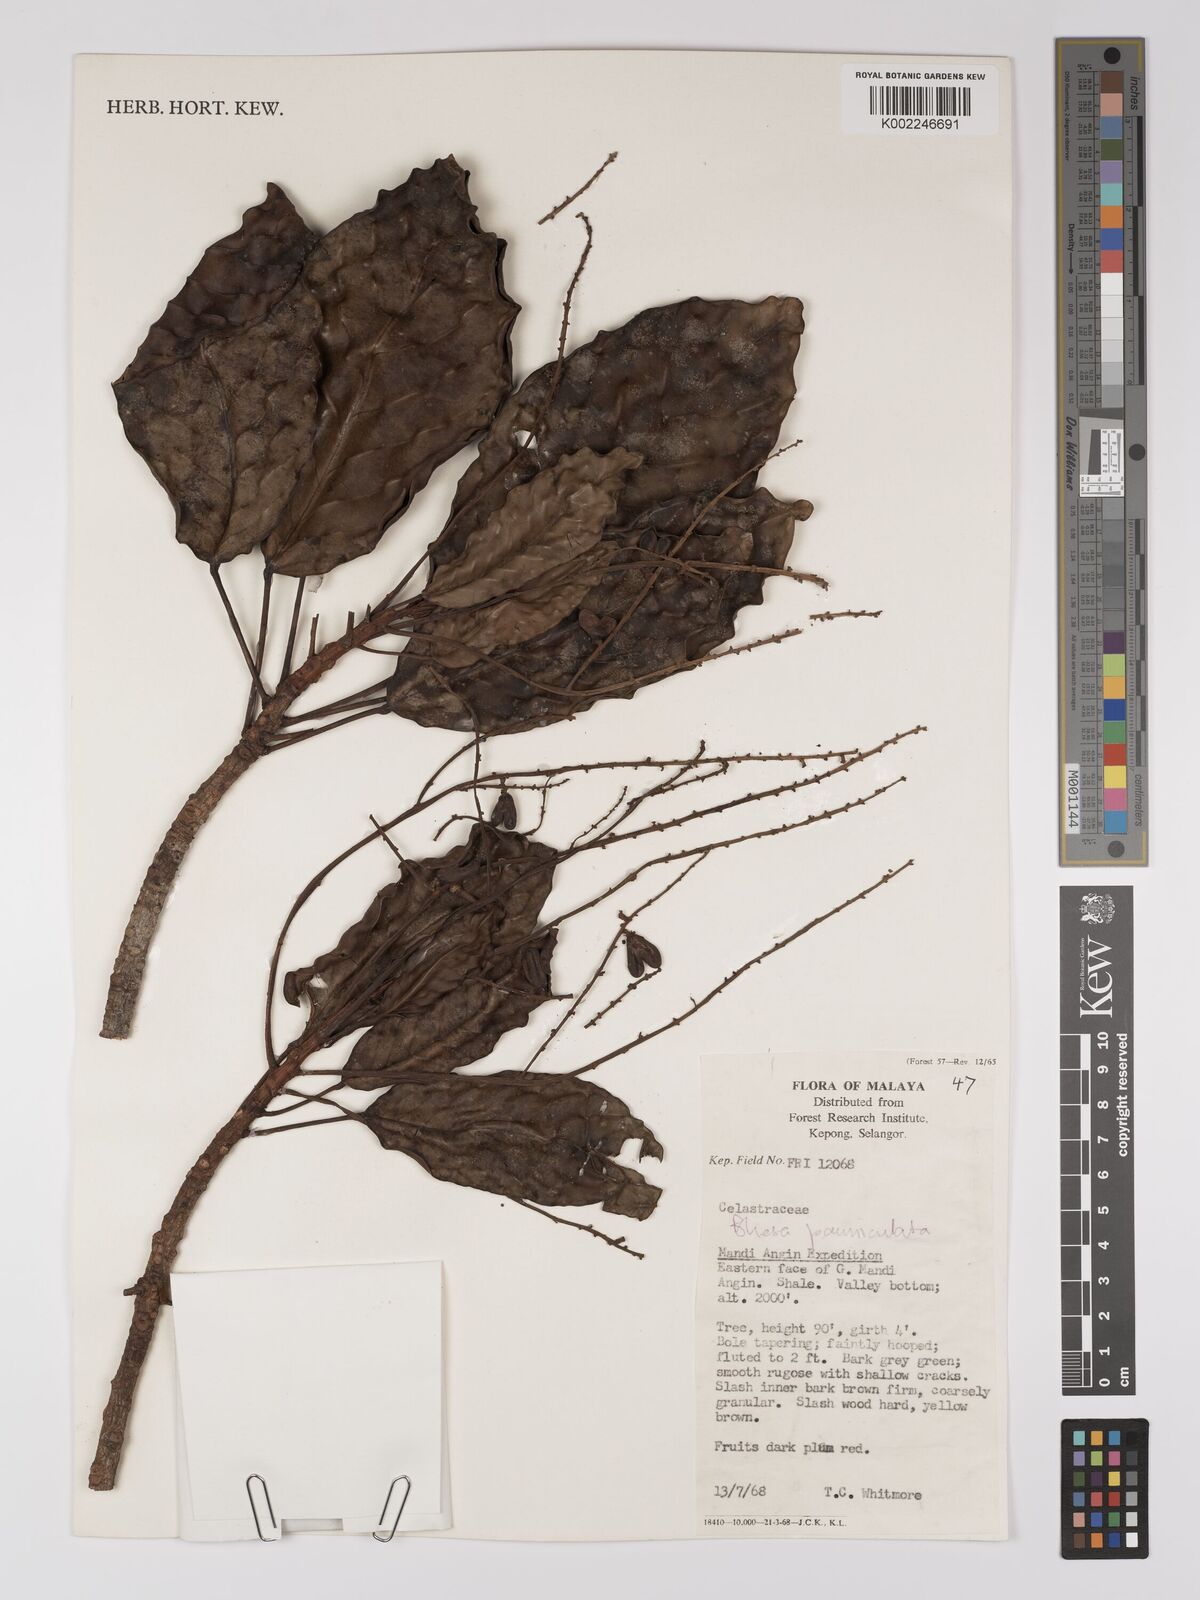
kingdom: Plantae
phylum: Tracheophyta
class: Magnoliopsida
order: Malpighiales
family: Centroplacaceae
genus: Bhesa
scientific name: Bhesa paniculata
